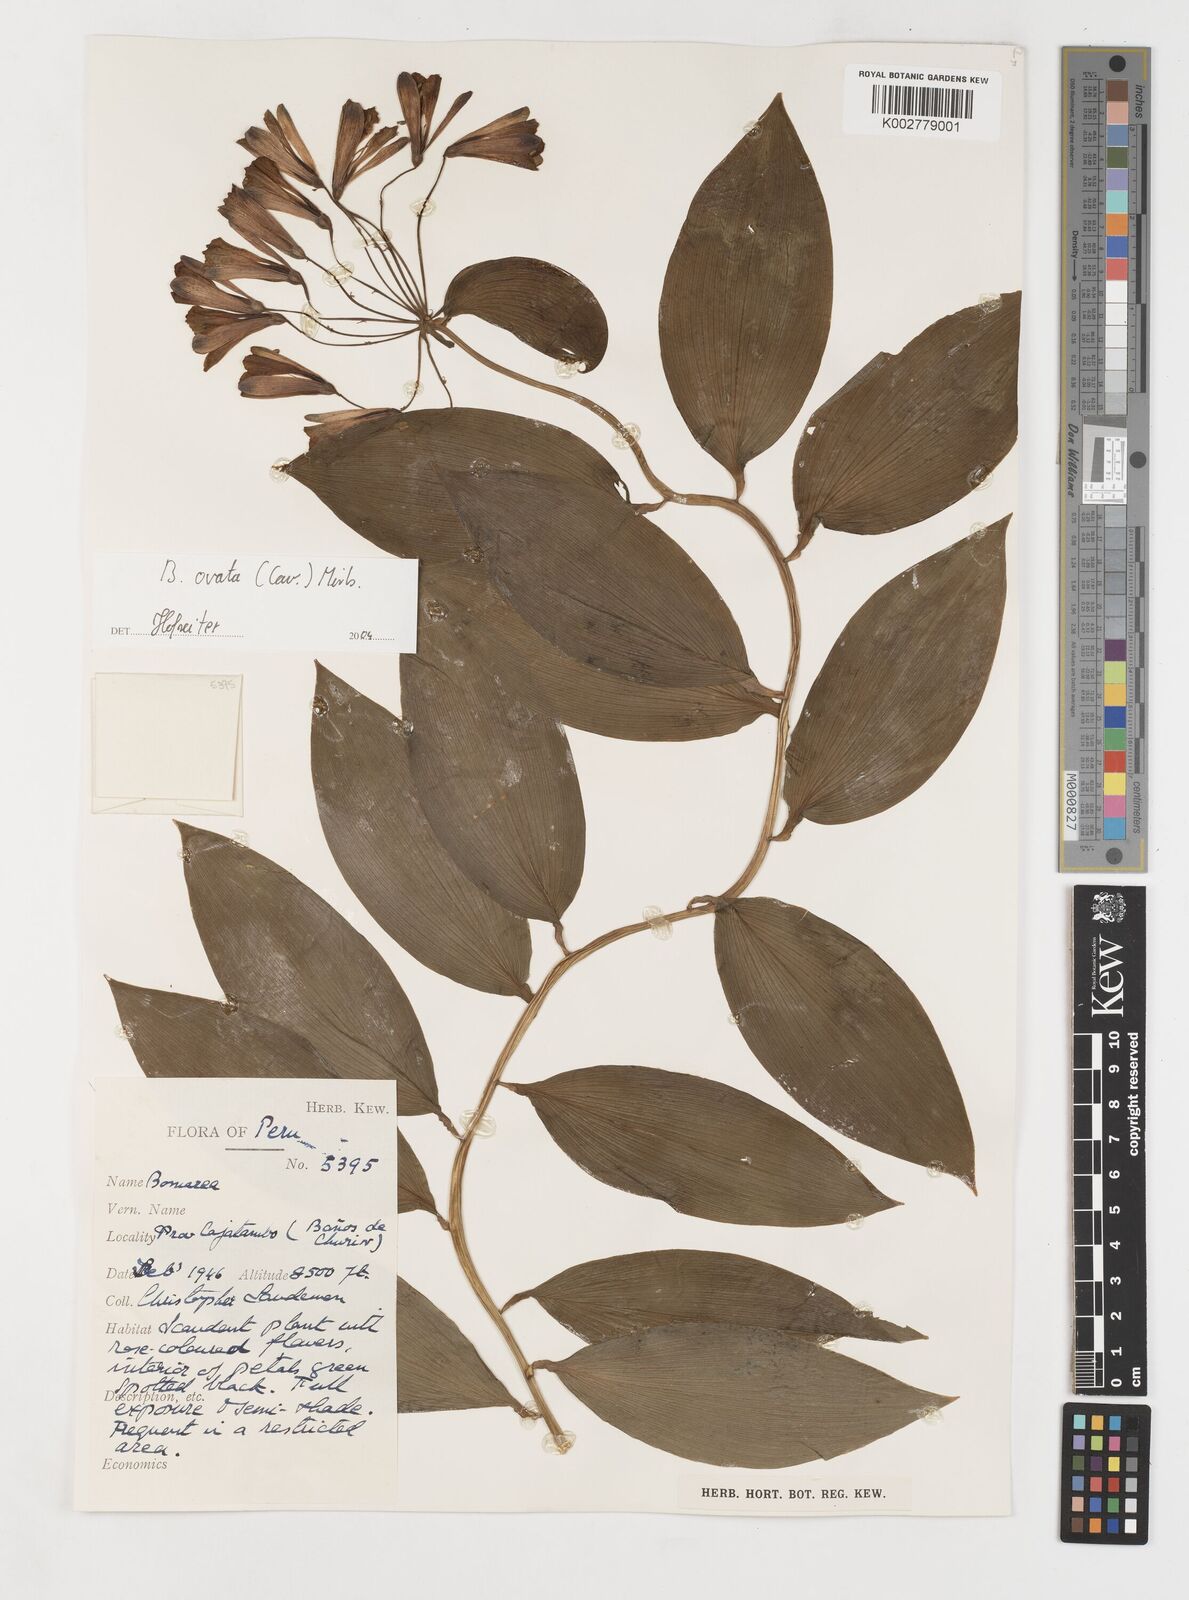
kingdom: Plantae
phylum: Tracheophyta
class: Liliopsida
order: Liliales
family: Alstroemeriaceae
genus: Bomarea
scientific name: Bomarea ovata
